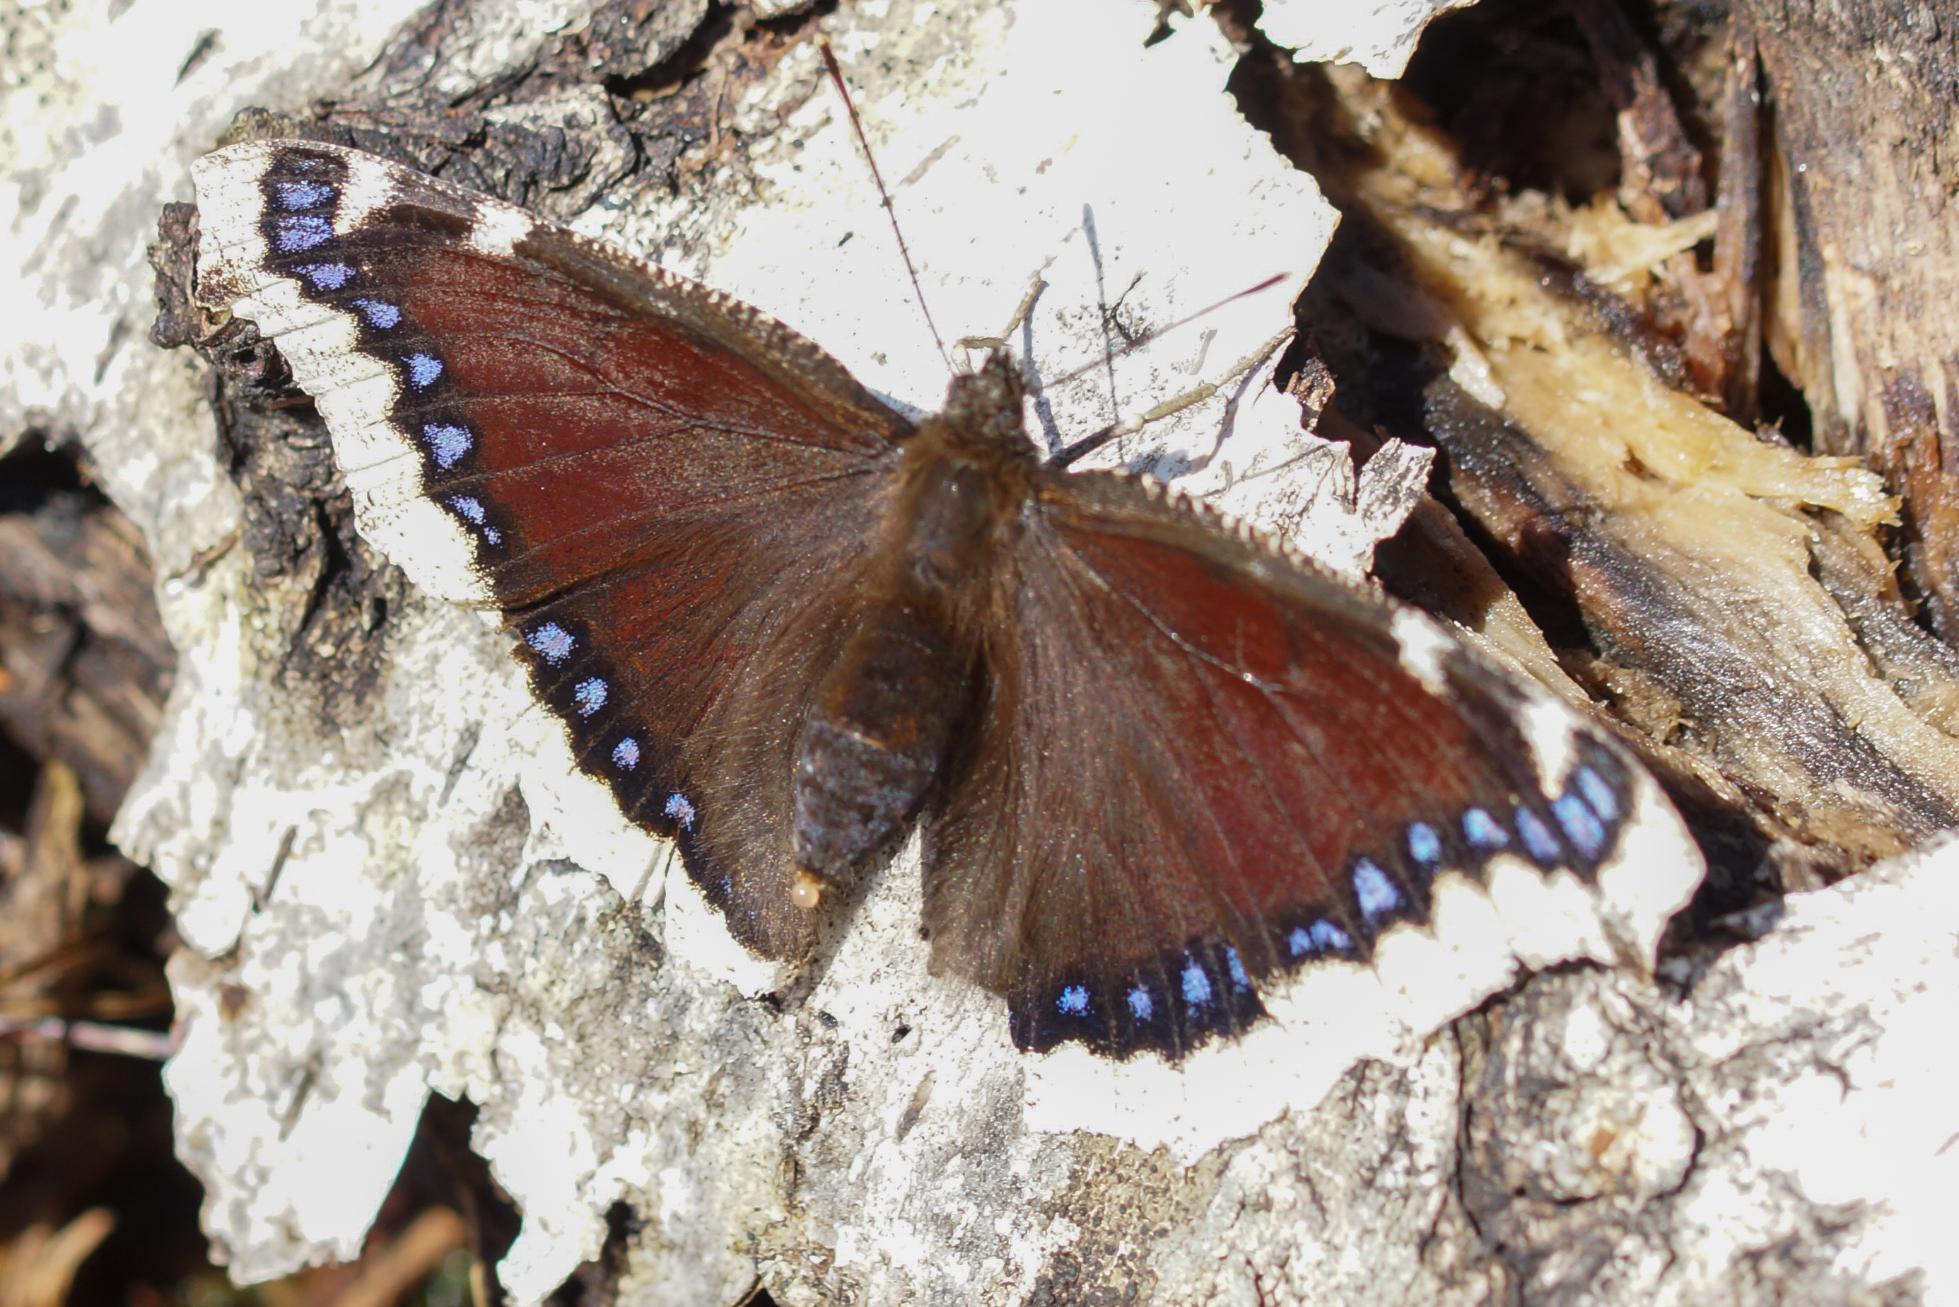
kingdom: Animalia
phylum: Arthropoda
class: Insecta
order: Lepidoptera
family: Nymphalidae
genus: Nymphalis
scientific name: Nymphalis antiopa
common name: Sørgekåbe
